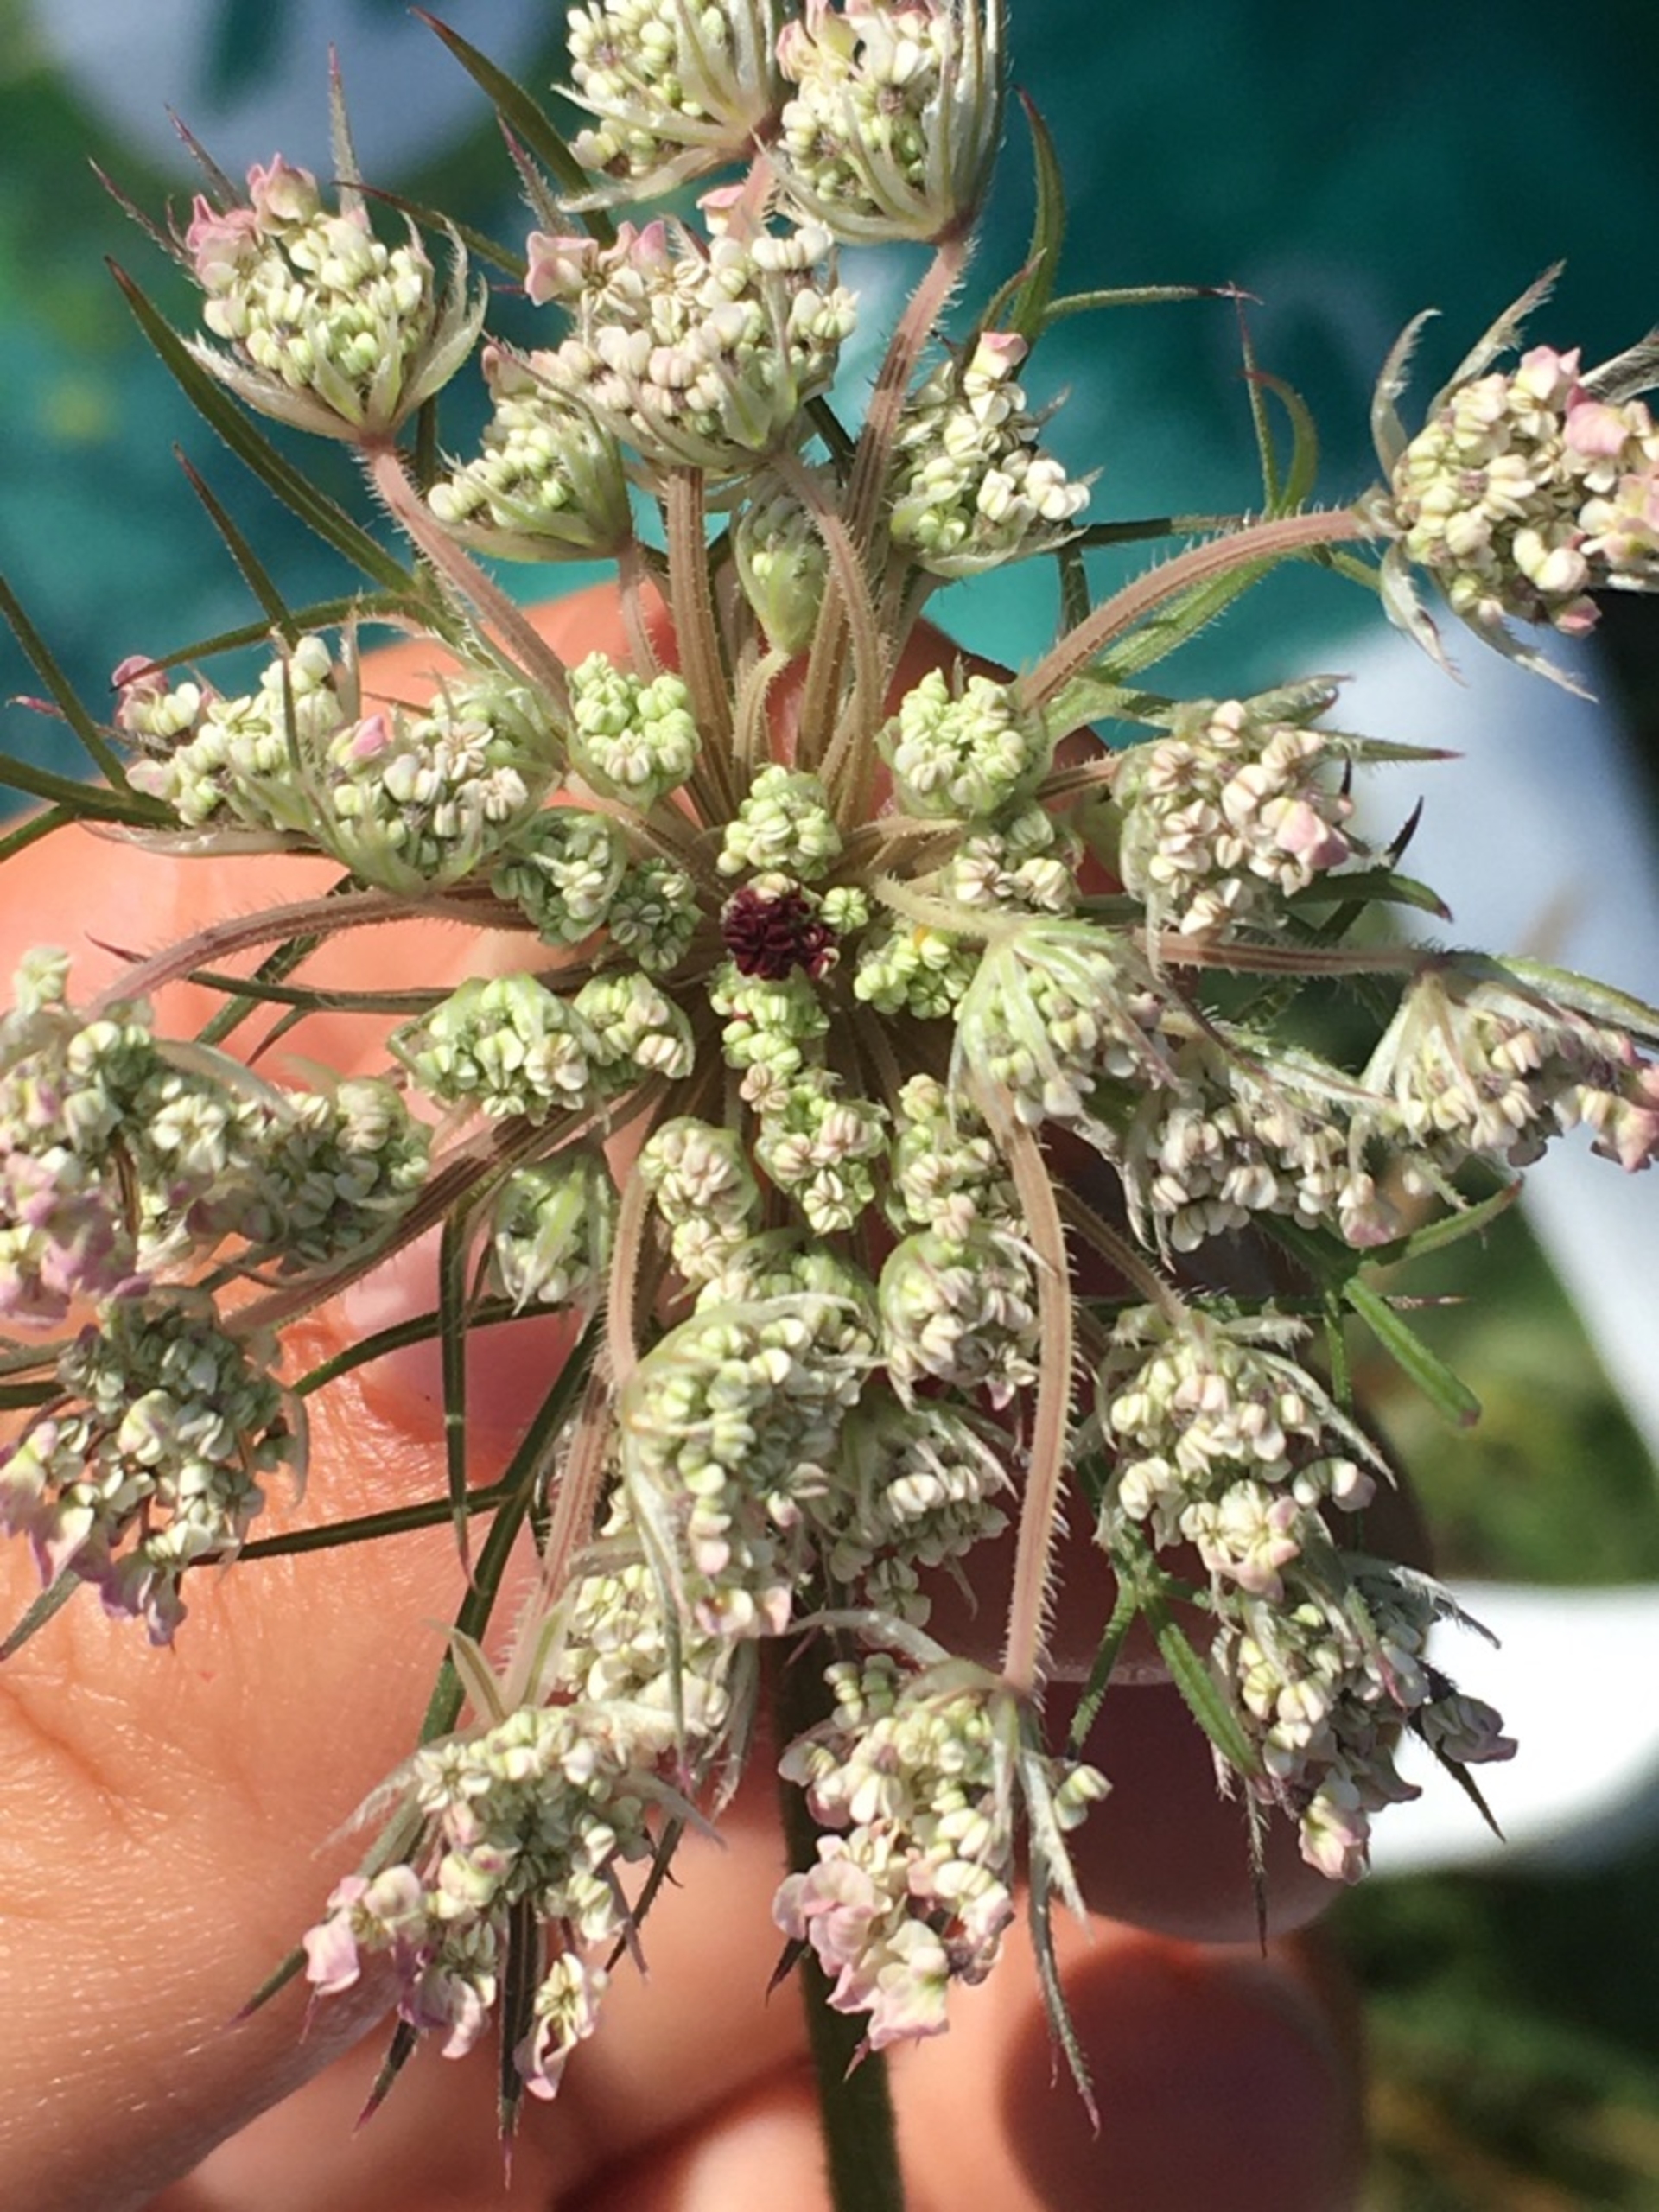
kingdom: Plantae
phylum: Tracheophyta
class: Magnoliopsida
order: Apiales
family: Apiaceae
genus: Daucus
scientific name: Daucus carota
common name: Vild gulerod
